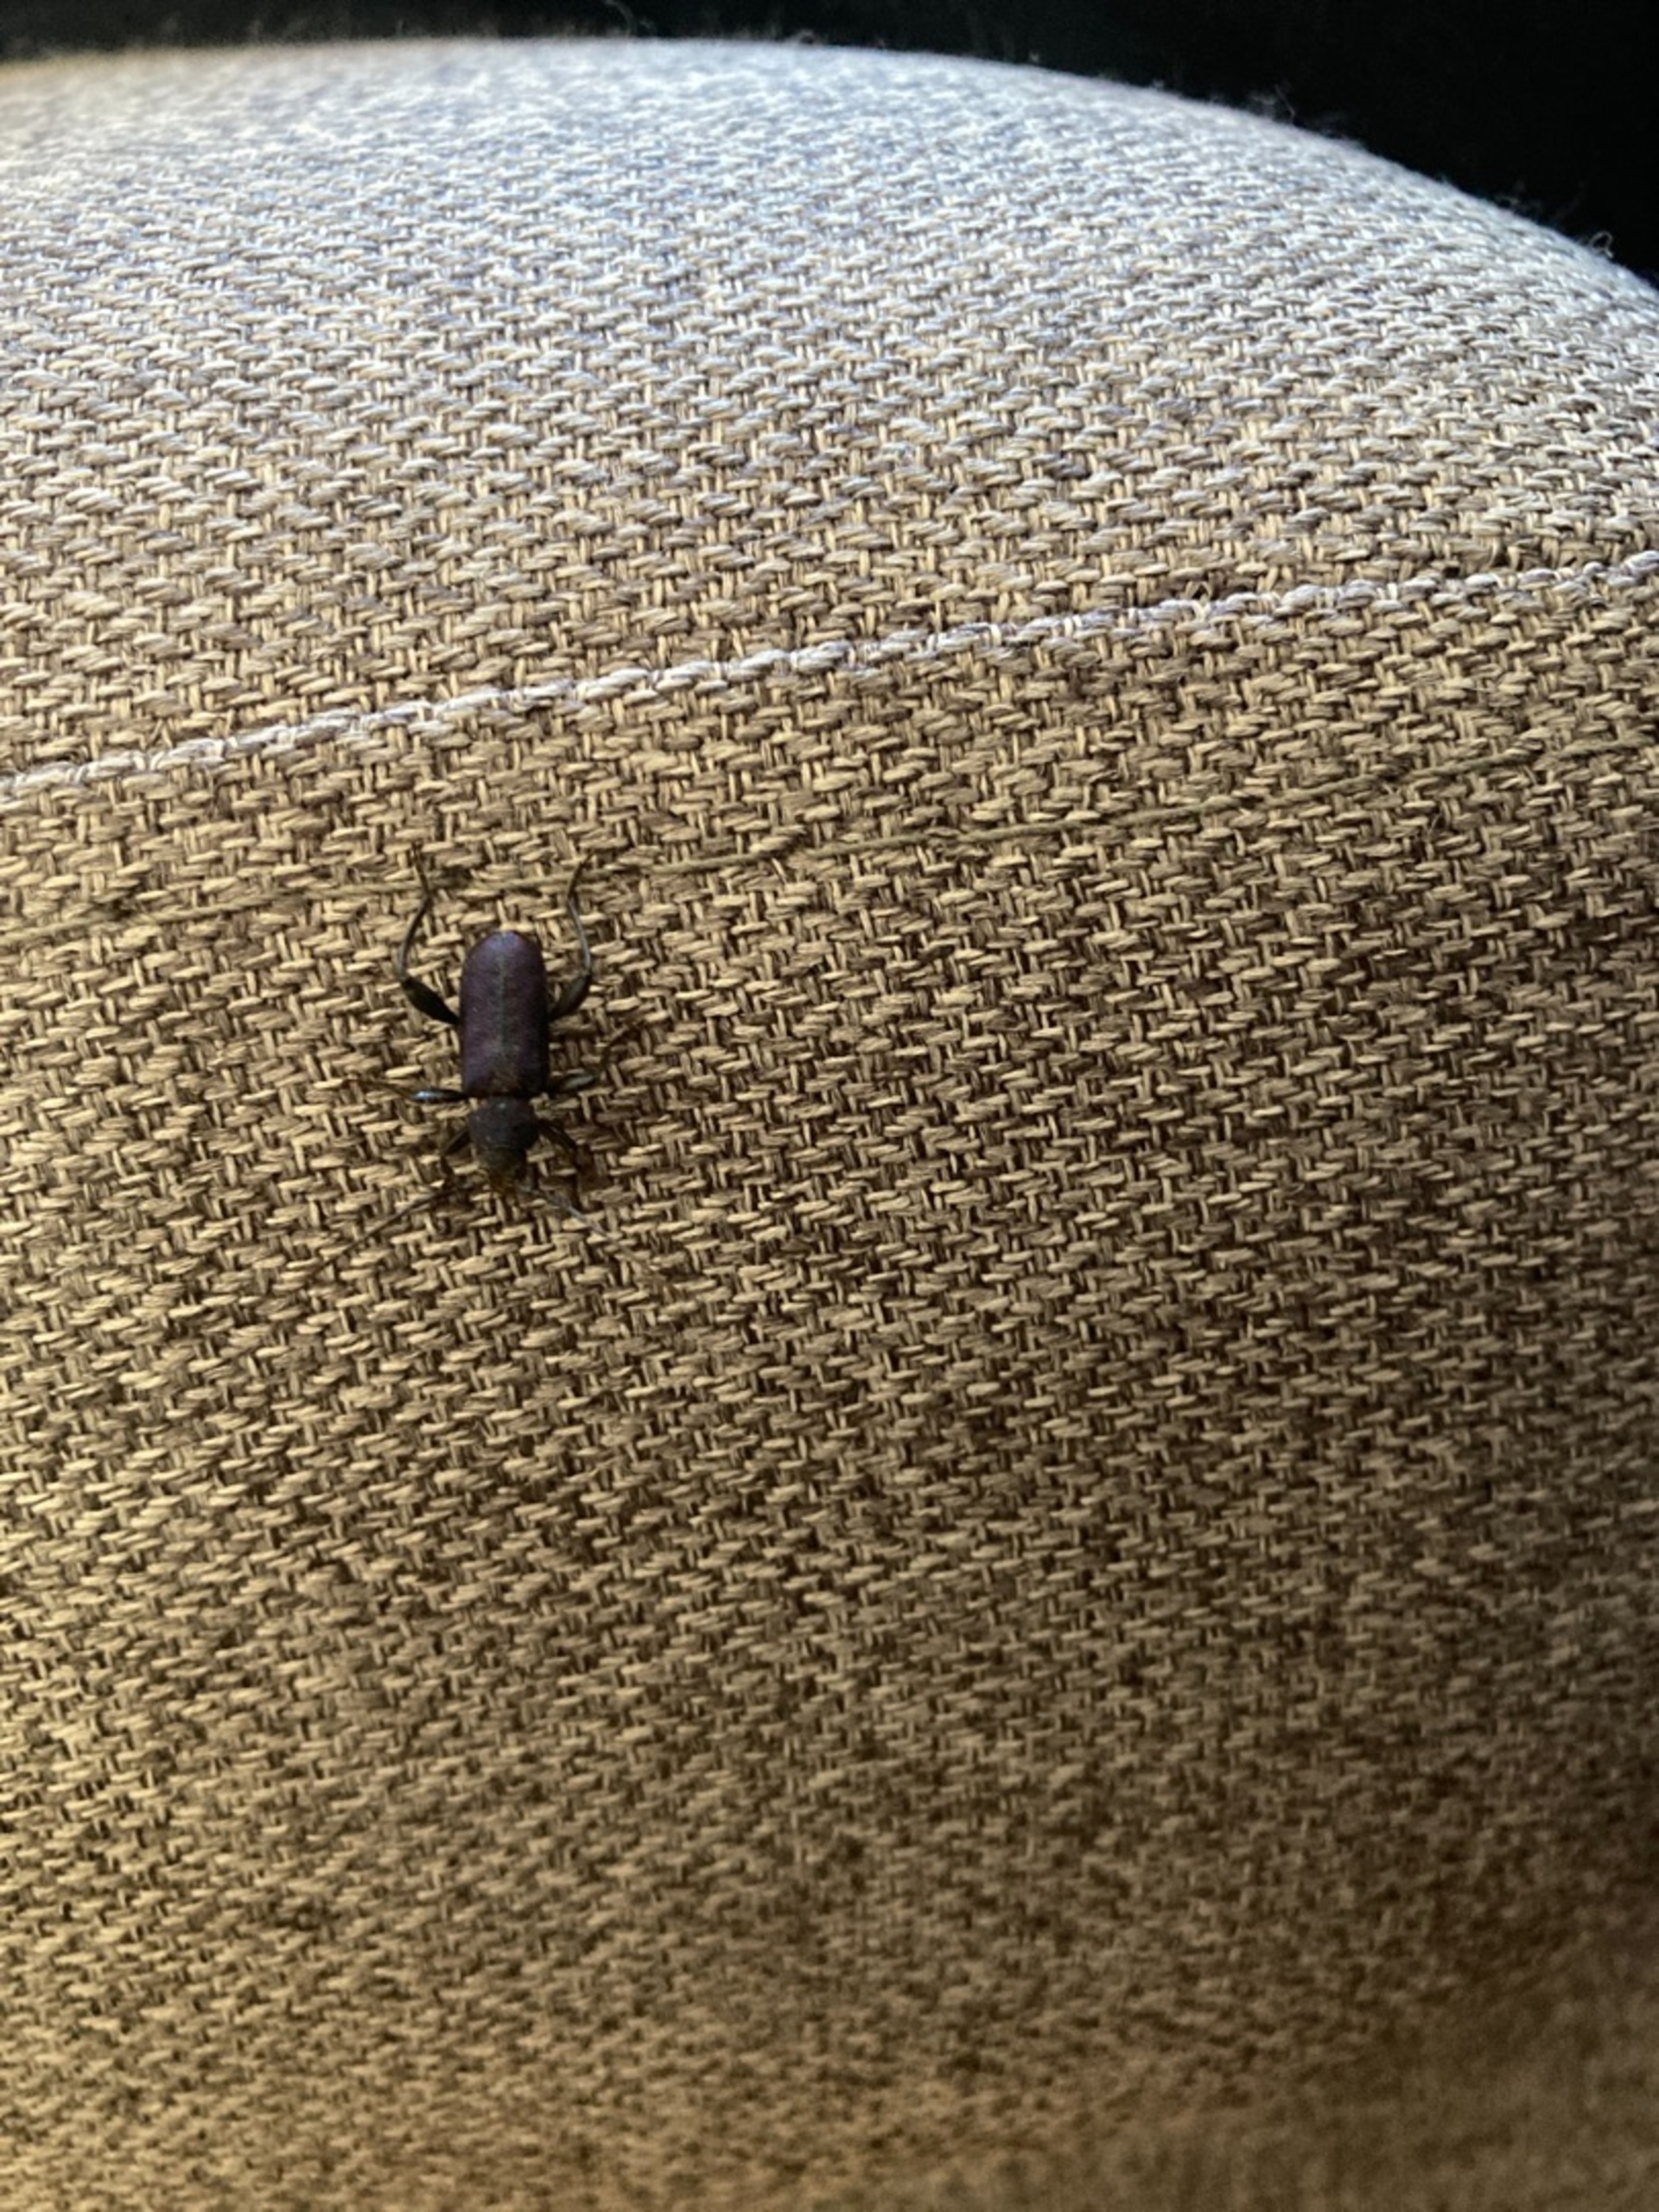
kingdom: Animalia
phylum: Arthropoda
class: Insecta
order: Coleoptera
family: Cerambycidae
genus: Agapanthia
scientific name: Agapanthia violacea
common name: Violbuk
